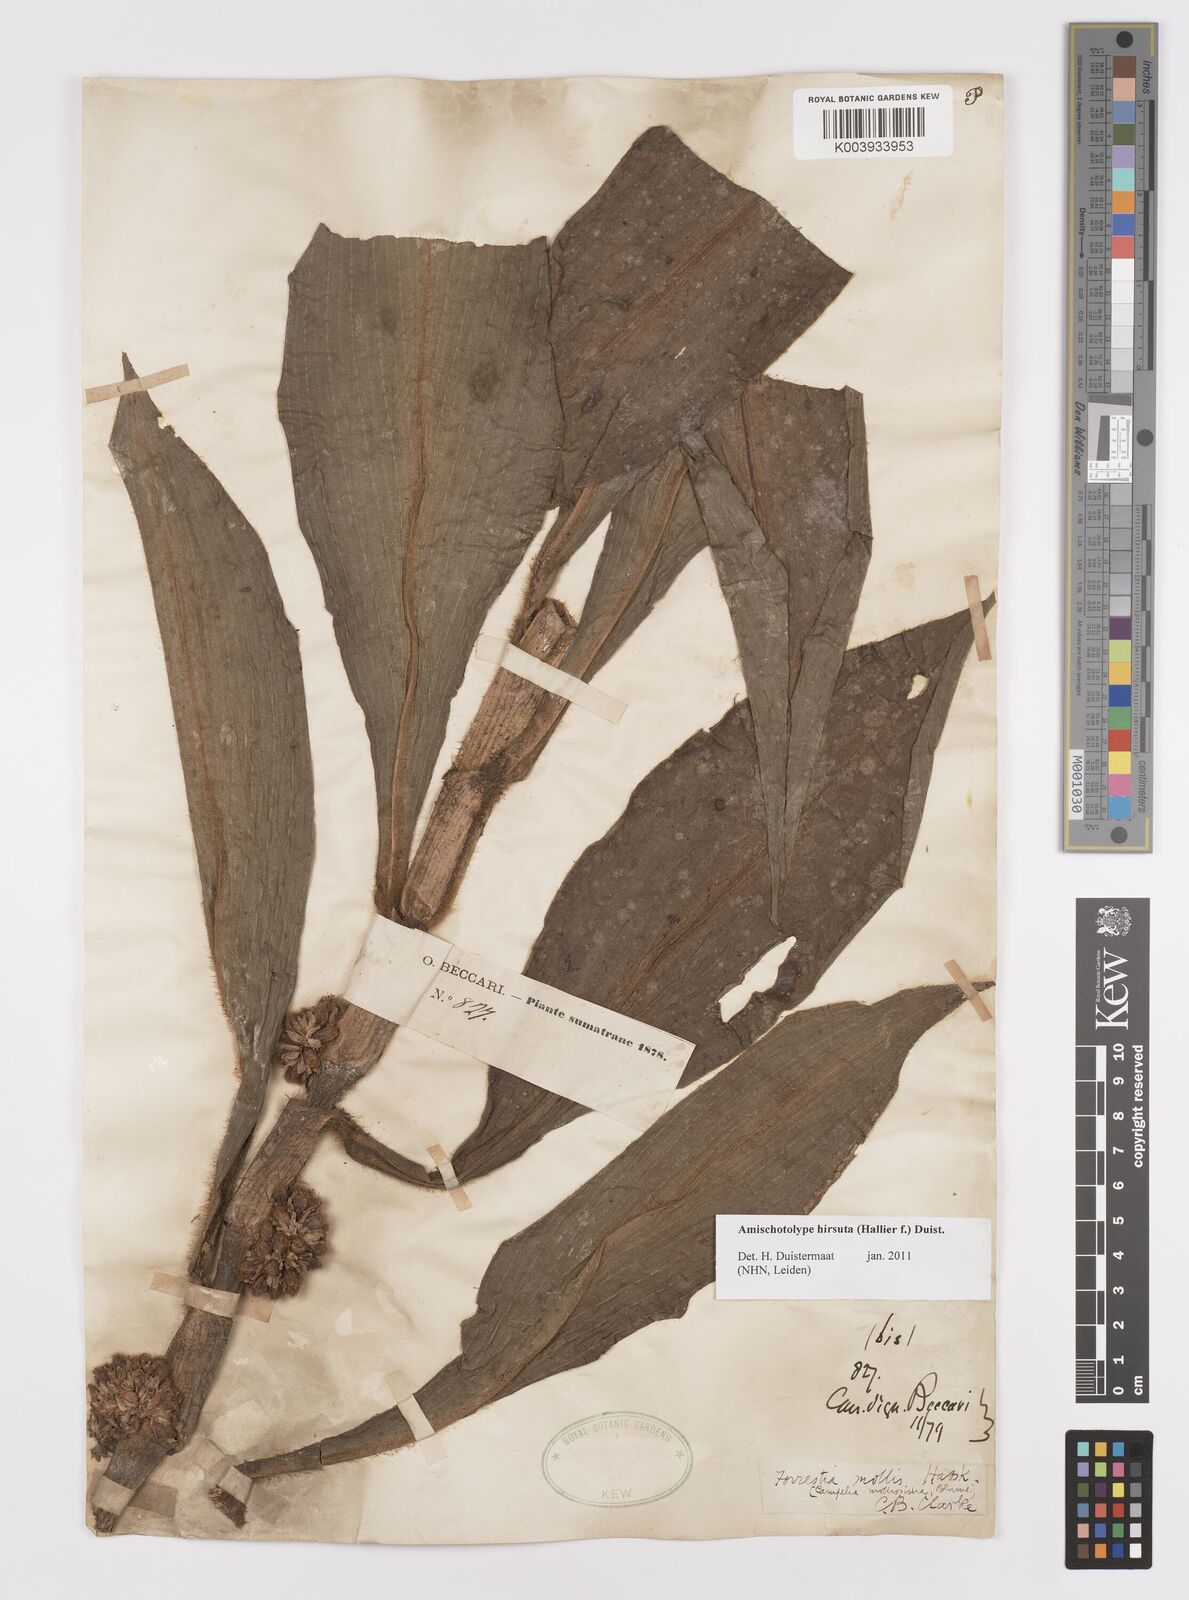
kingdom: Plantae
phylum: Tracheophyta
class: Liliopsida
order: Commelinales
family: Commelinaceae
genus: Amischotolype
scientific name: Amischotolype hirsuta
